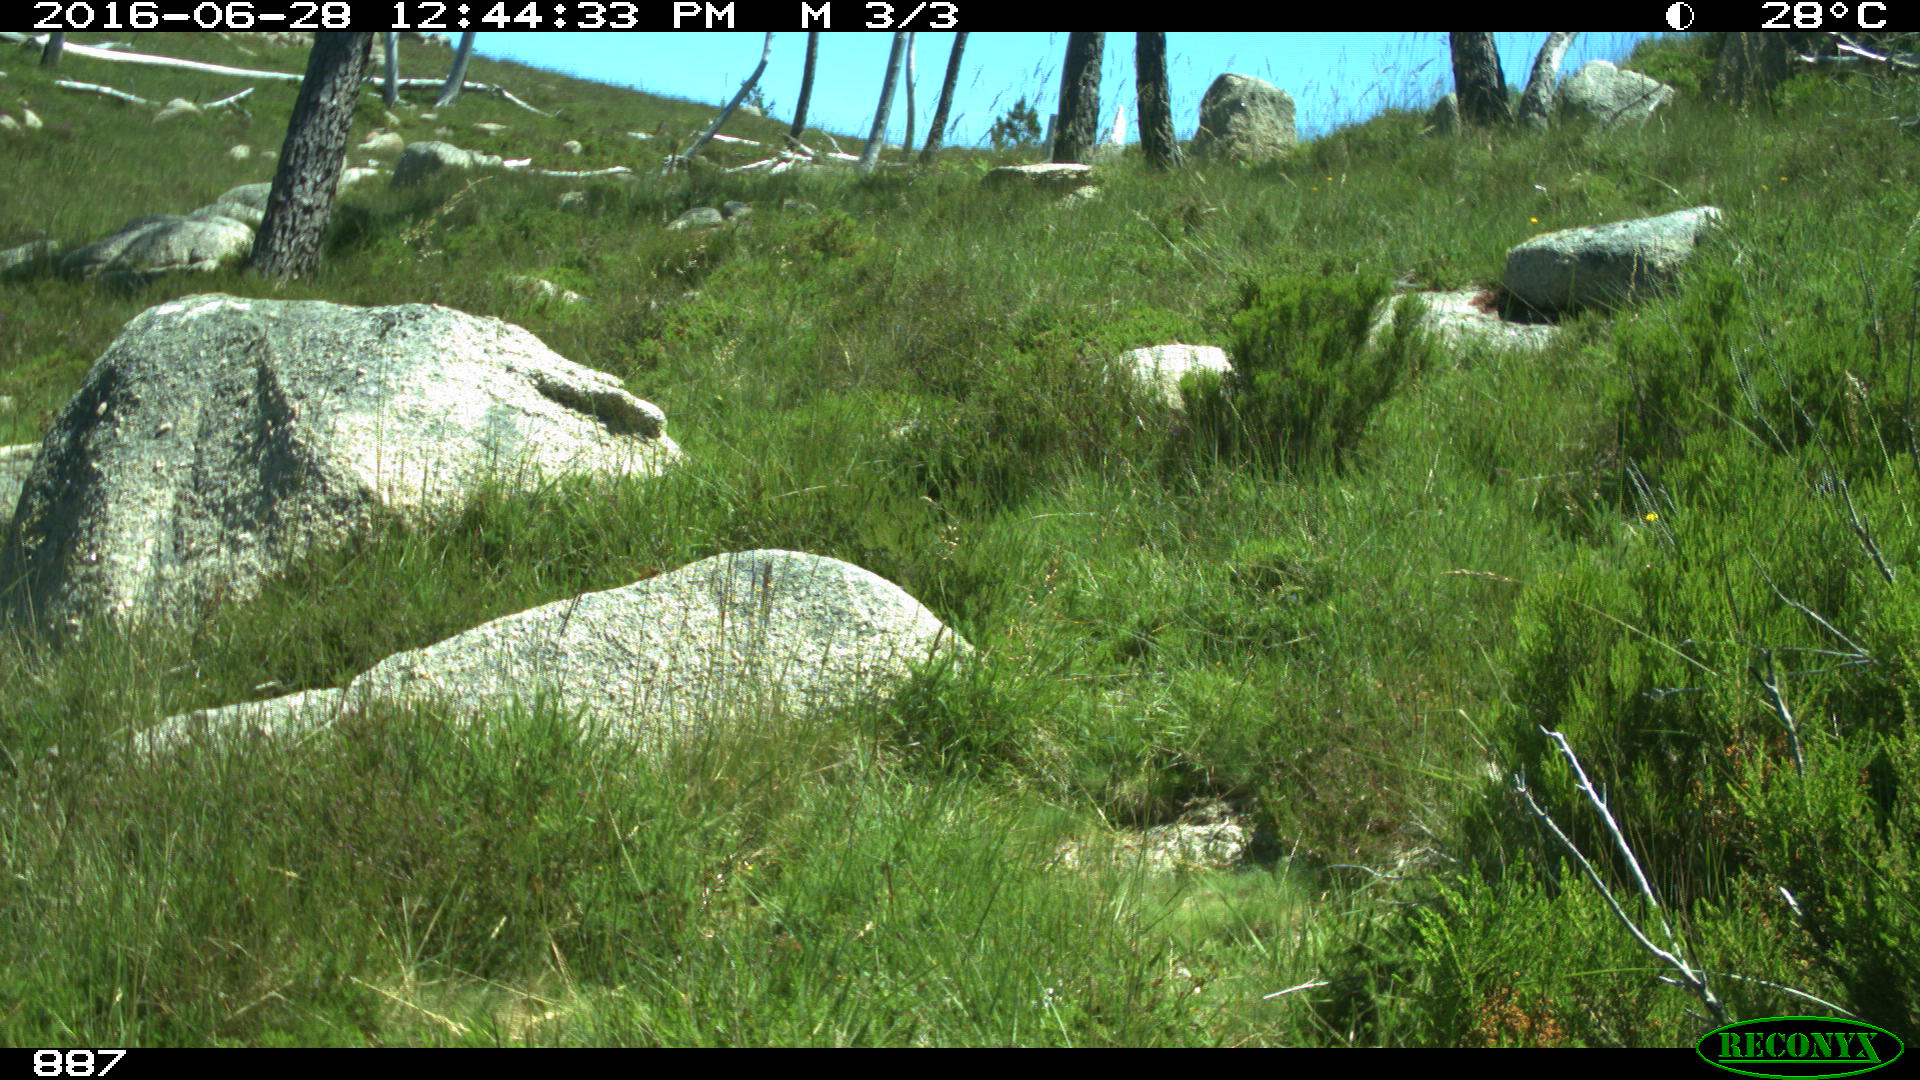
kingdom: Animalia
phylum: Chordata
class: Mammalia
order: Artiodactyla
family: Cervidae
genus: Capreolus
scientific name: Capreolus capreolus
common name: Western roe deer
